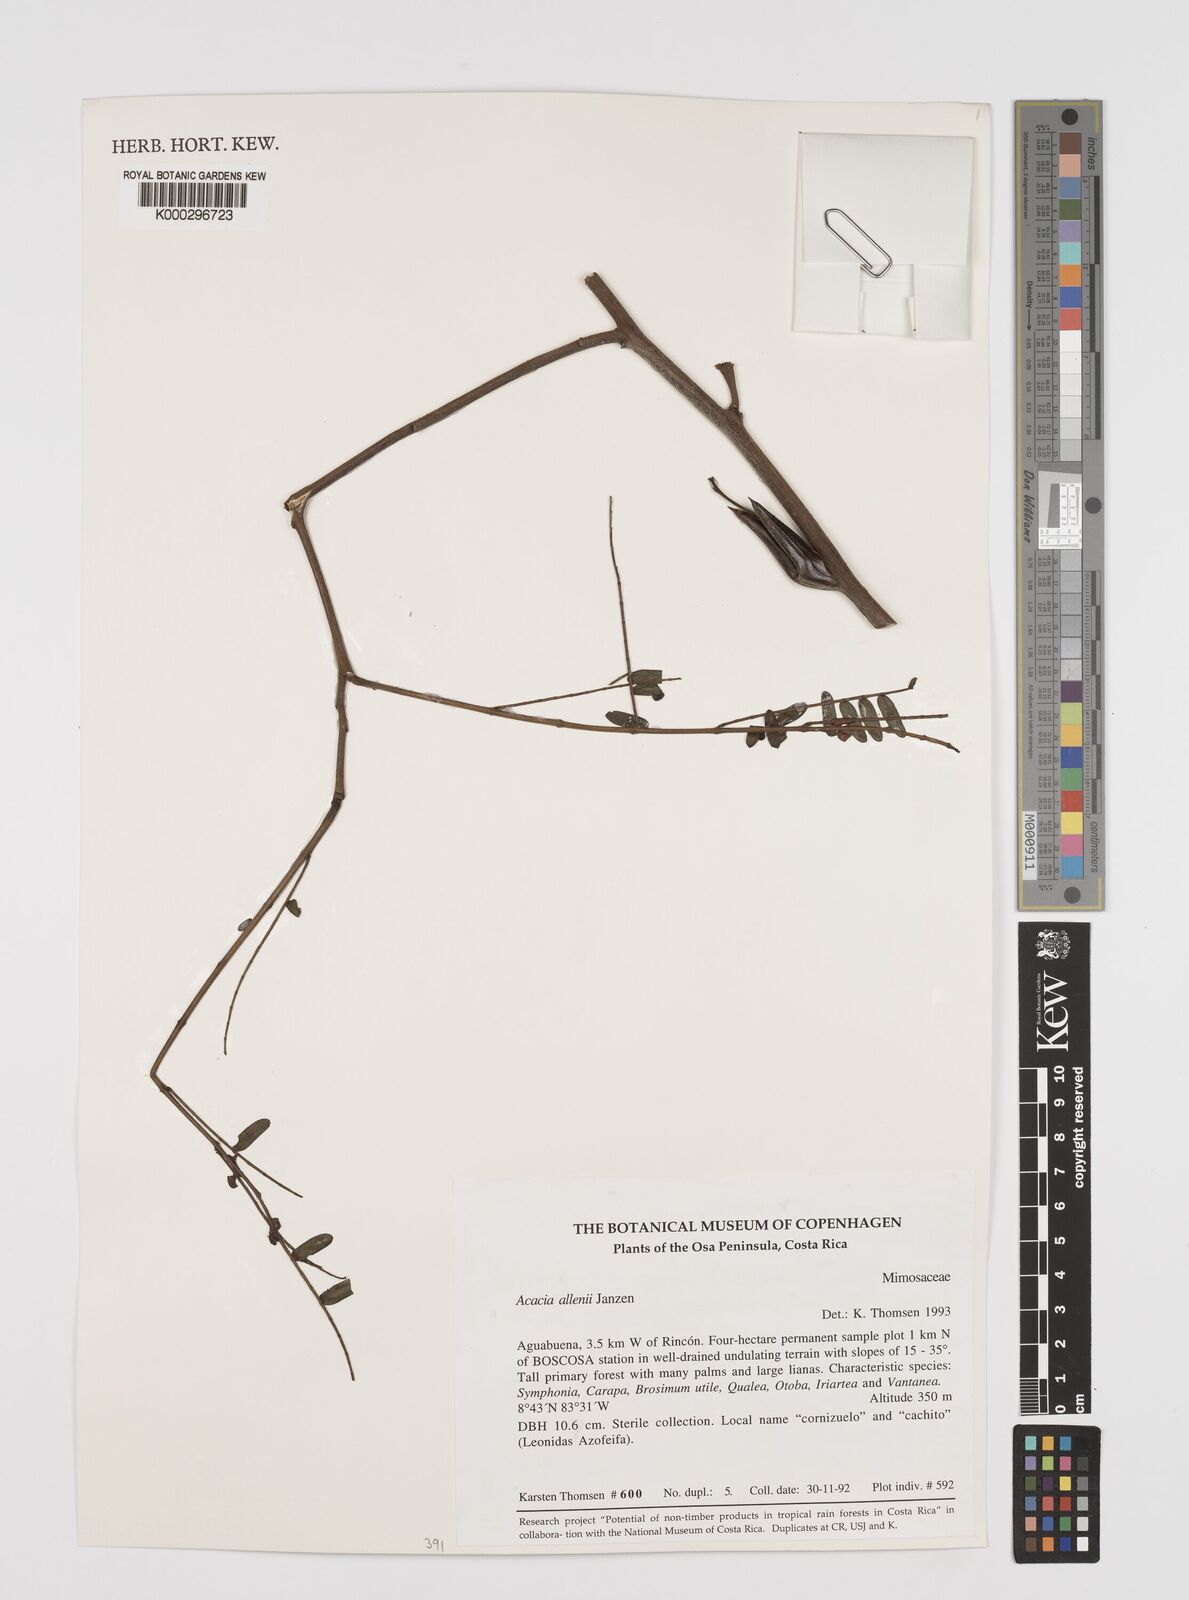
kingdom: Plantae
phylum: Tracheophyta
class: Magnoliopsida
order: Fabales
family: Fabaceae
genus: Vachellia
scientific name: Vachellia allenii
